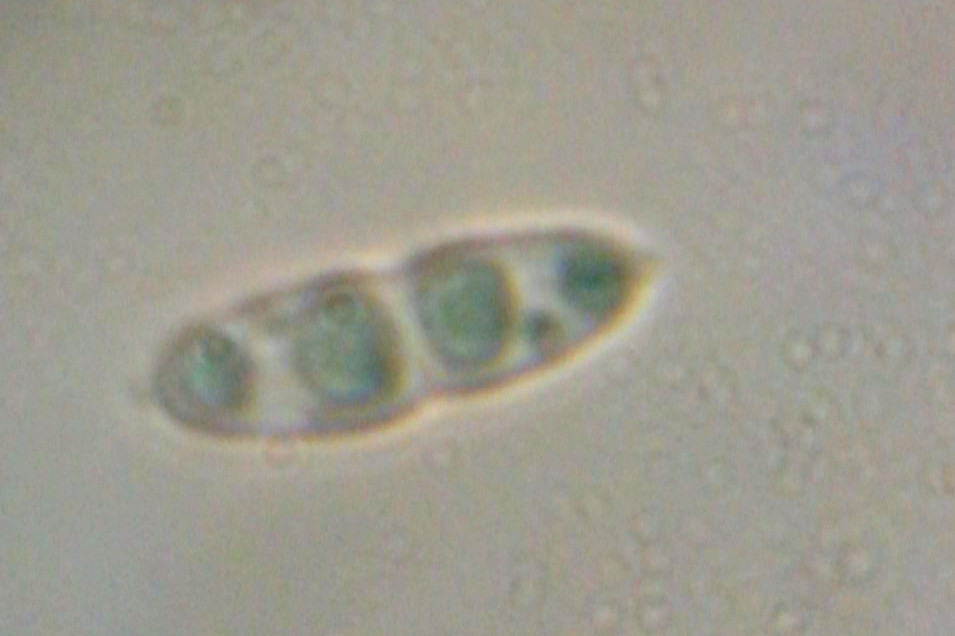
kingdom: Fungi
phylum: Ascomycota
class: Sordariomycetes
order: Diaporthales
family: Diaporthaceae
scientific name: Diaporthaceae
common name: kulknippefamilien
